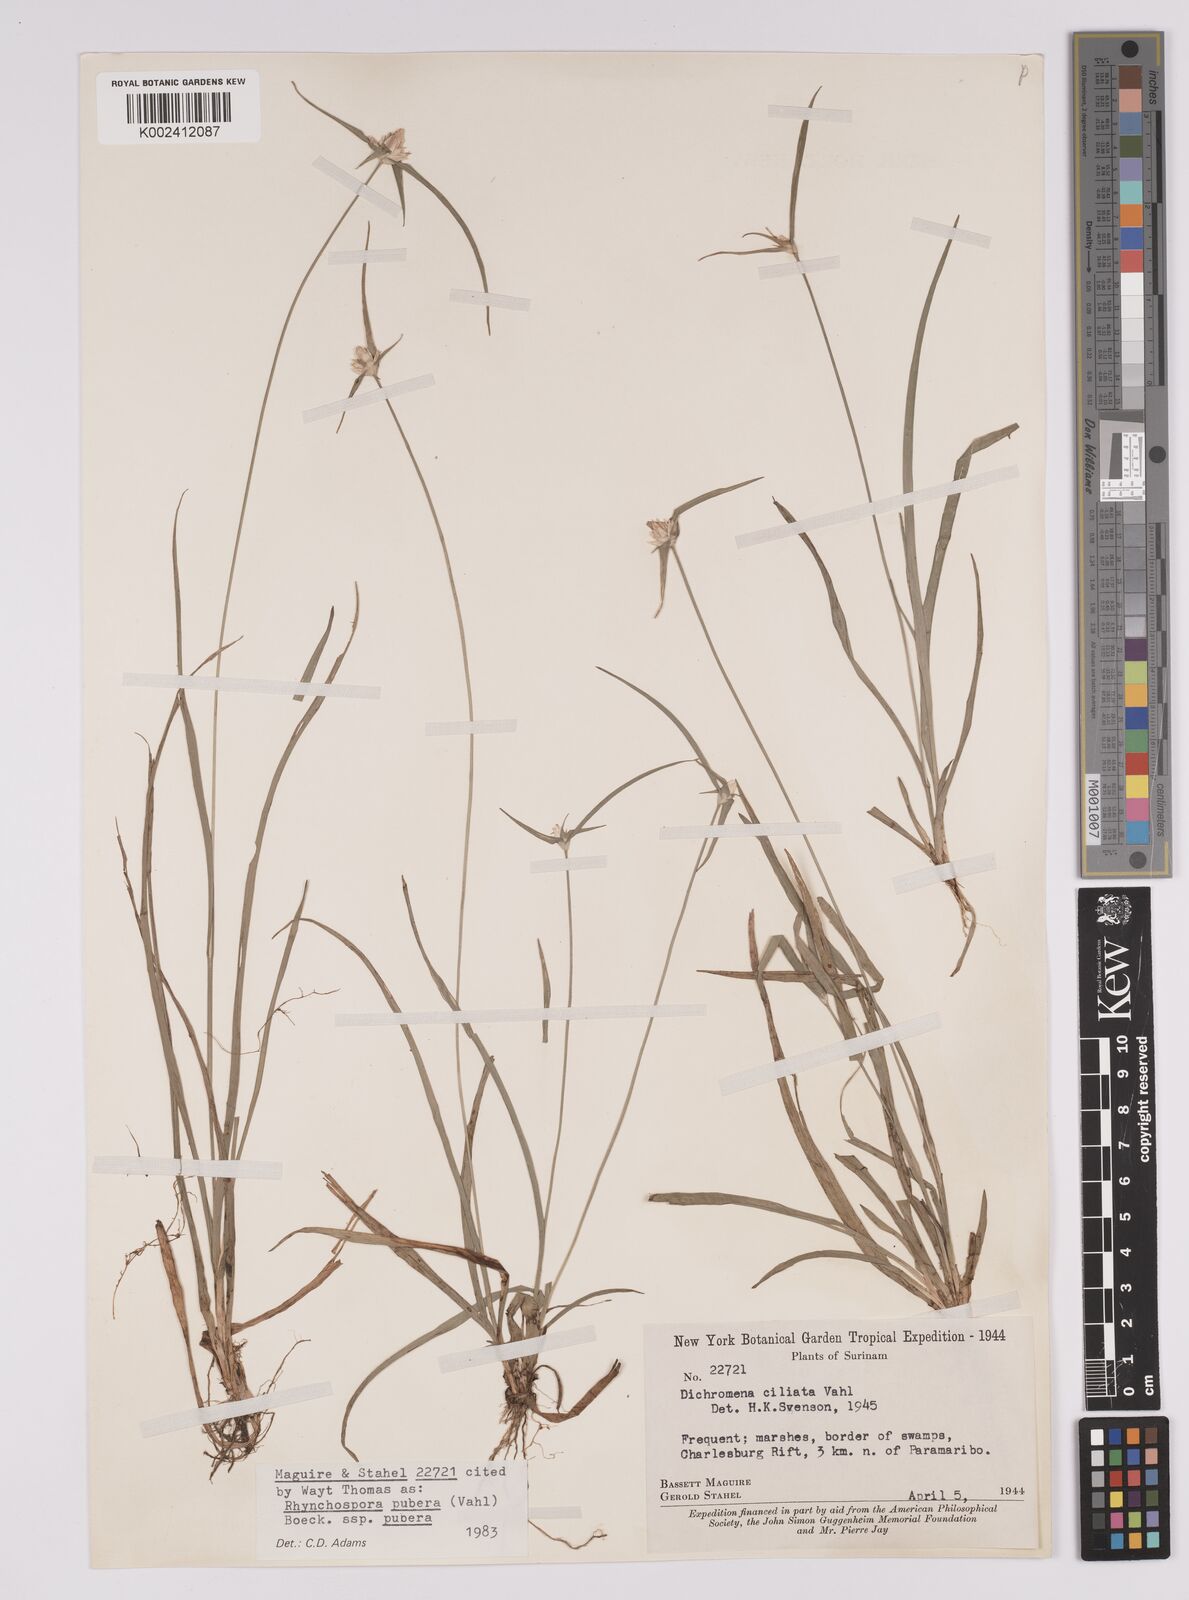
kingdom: Plantae
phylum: Tracheophyta
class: Liliopsida
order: Poales
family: Cyperaceae
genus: Rhynchospora
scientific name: Rhynchospora pubera
